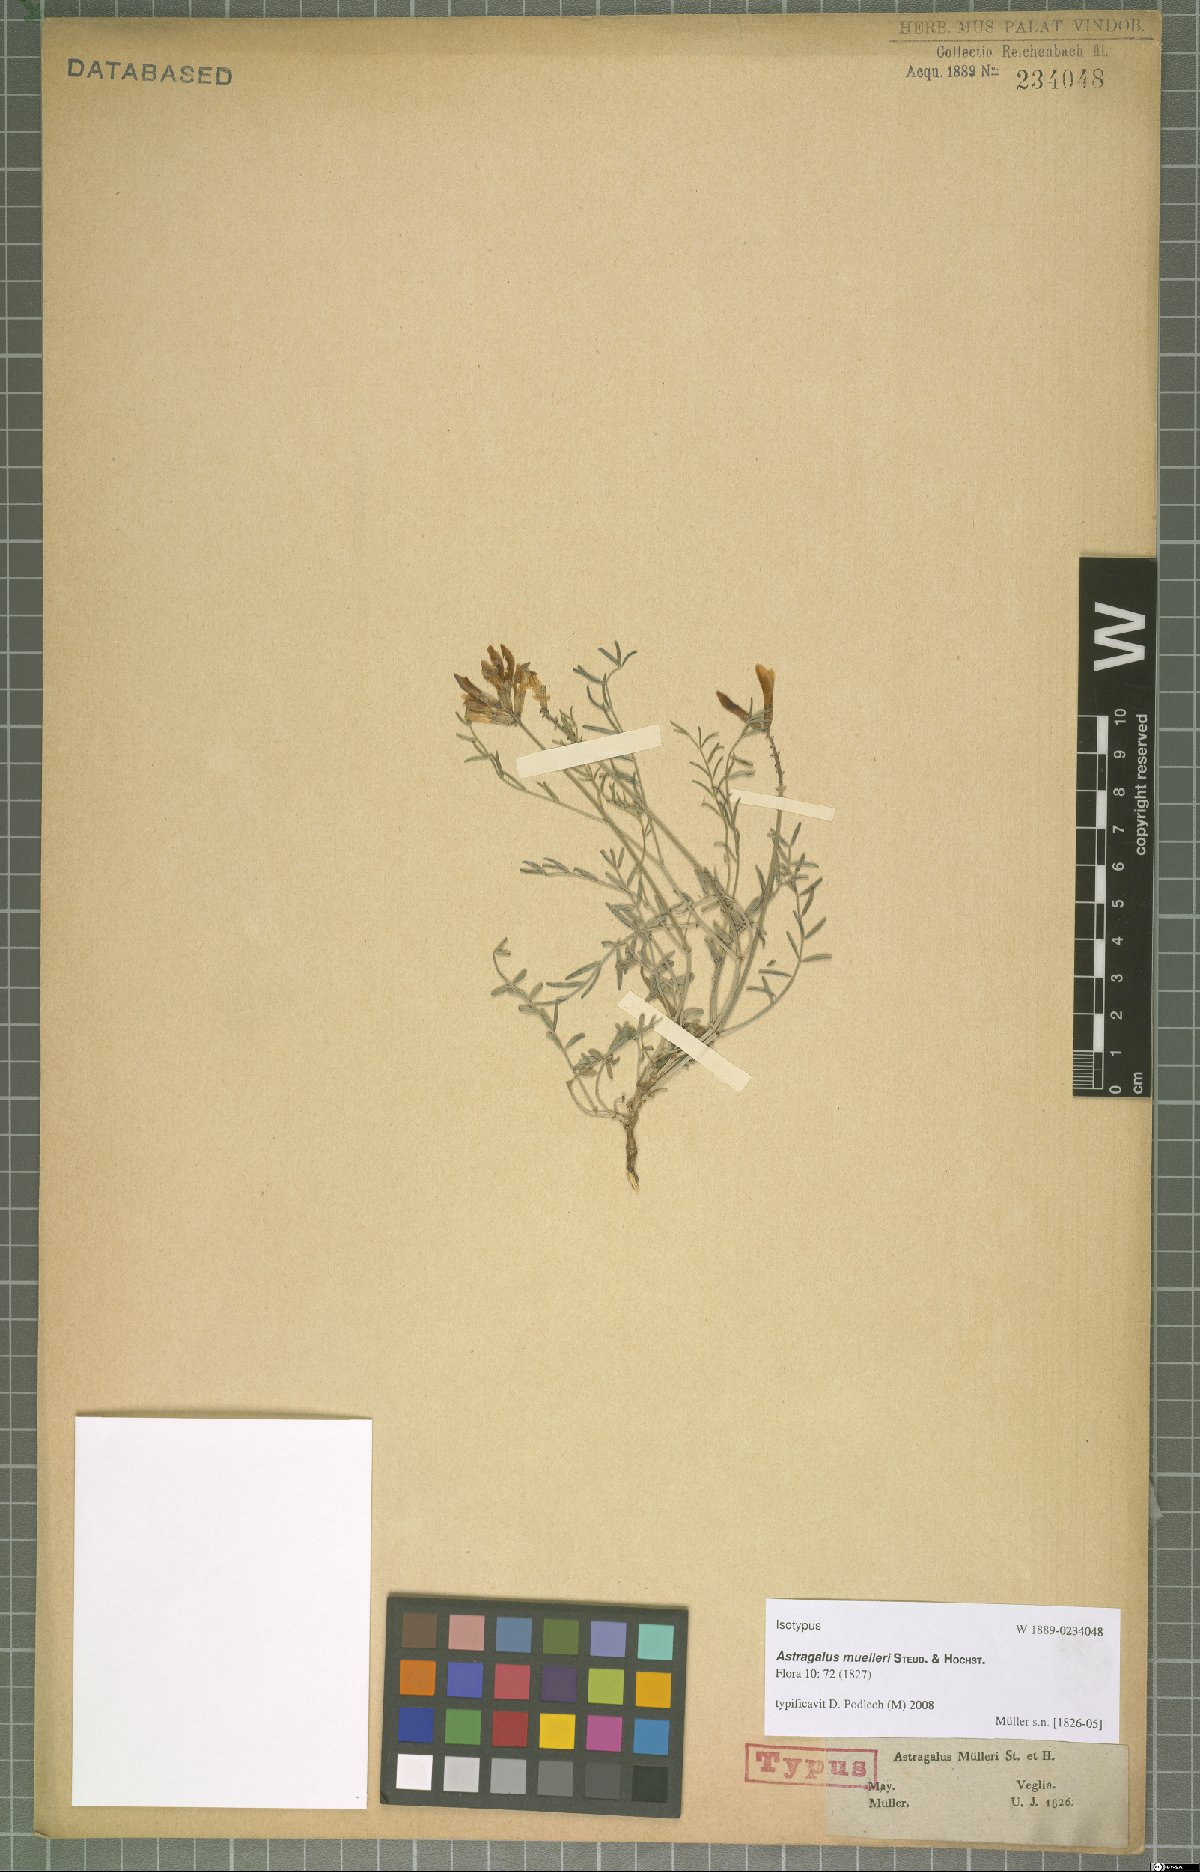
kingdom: Plantae
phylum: Tracheophyta
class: Magnoliopsida
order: Fabales
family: Fabaceae
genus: Astragalus
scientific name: Astragalus muelleri
